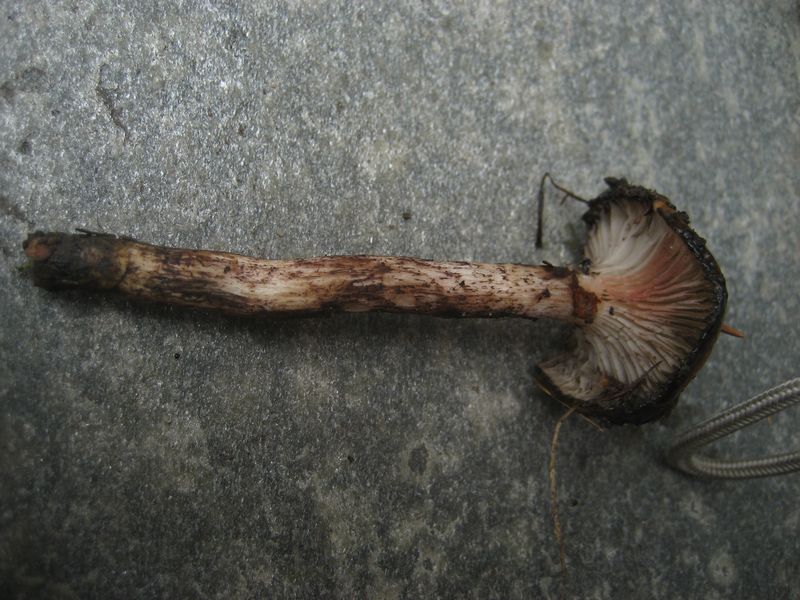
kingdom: Fungi
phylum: Basidiomycota
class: Agaricomycetes
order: Boletales
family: Gomphidiaceae
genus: Gomphidius
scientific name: Gomphidius maculatus
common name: rødmende slimslør
